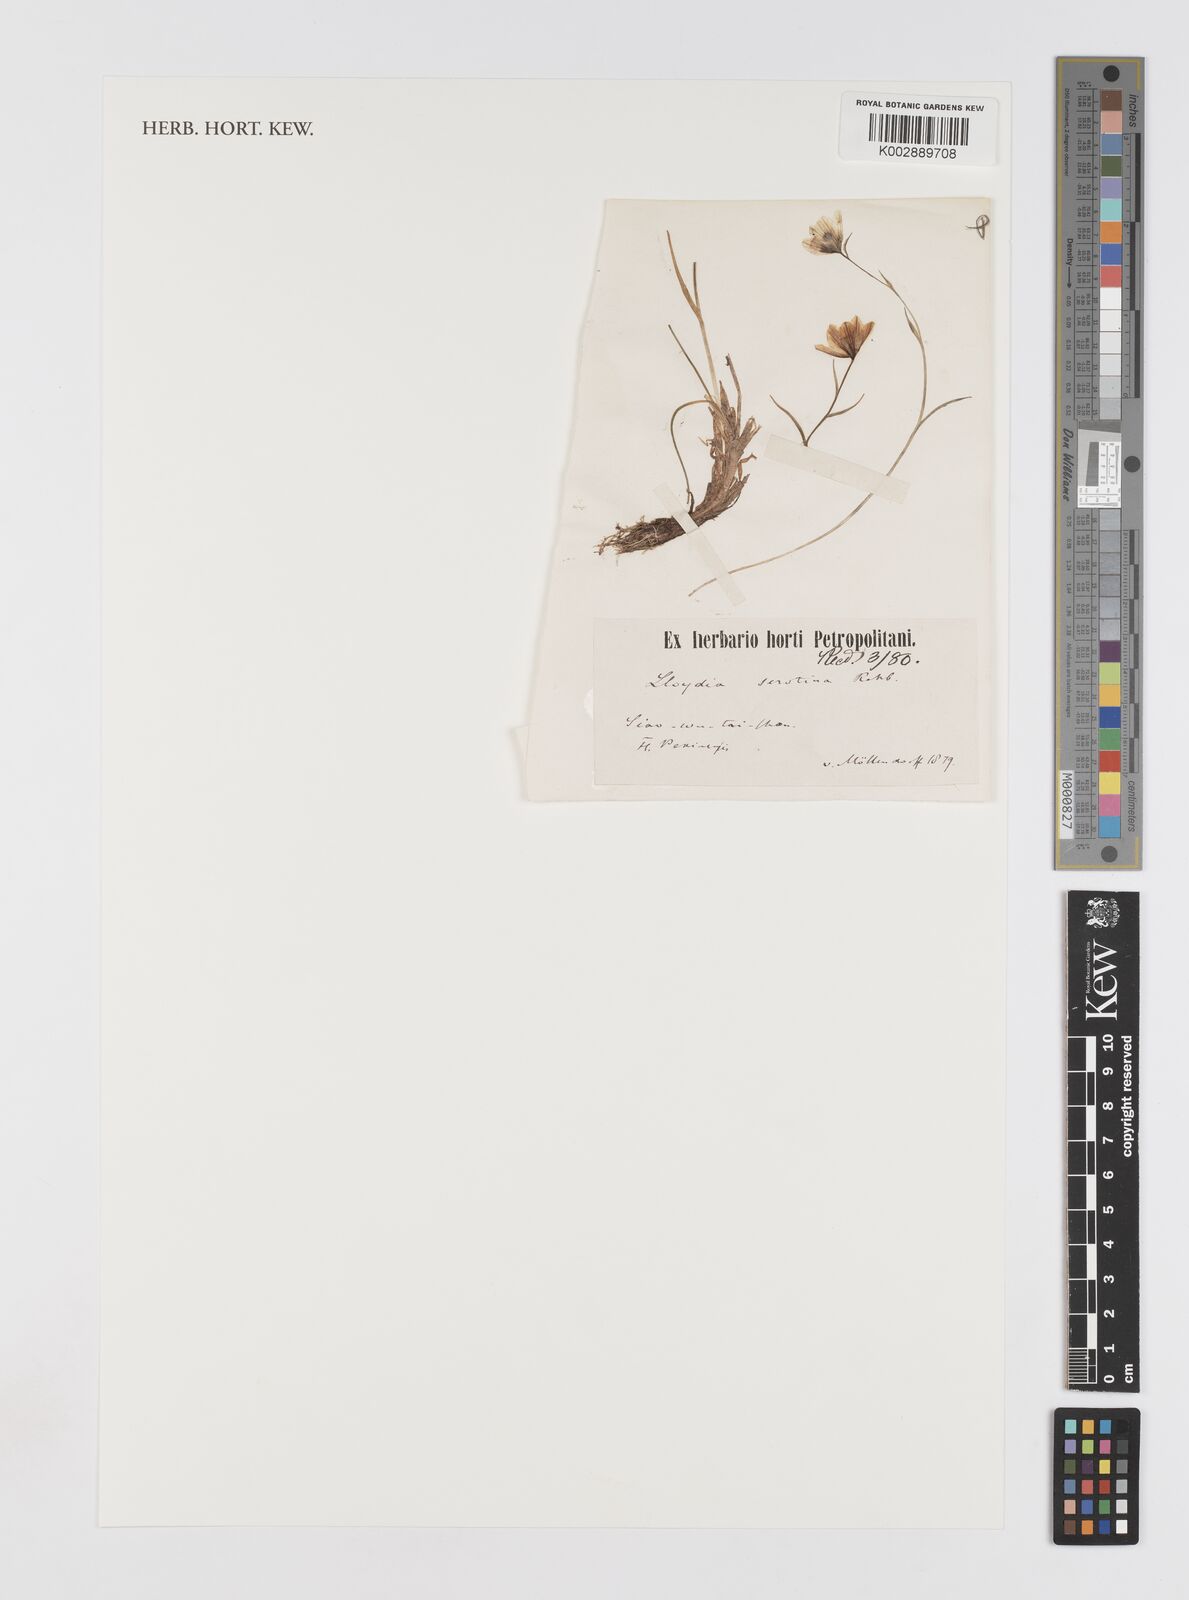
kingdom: Plantae
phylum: Tracheophyta
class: Liliopsida
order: Liliales
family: Liliaceae
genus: Gagea
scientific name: Gagea serotina
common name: Snowdon lily
